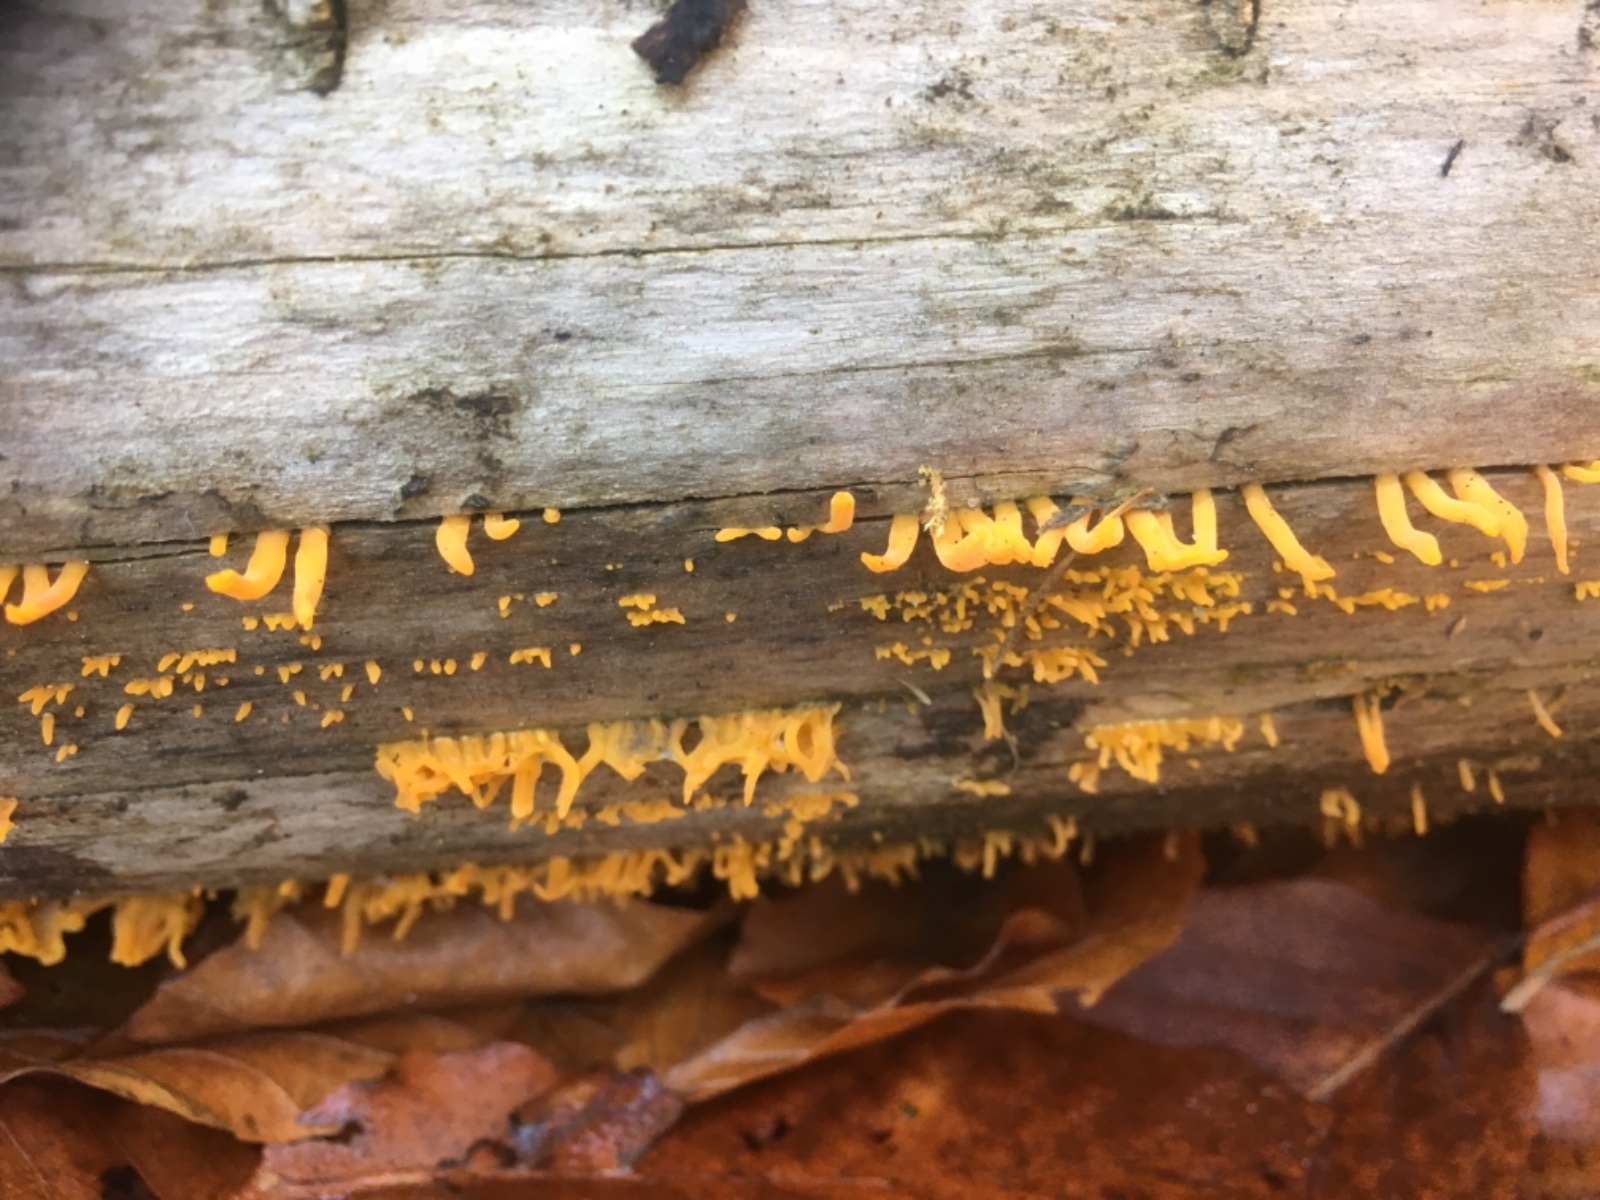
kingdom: Fungi
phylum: Basidiomycota
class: Dacrymycetes
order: Dacrymycetales
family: Dacrymycetaceae
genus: Calocera
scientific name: Calocera cornea
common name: liden guldgaffel
